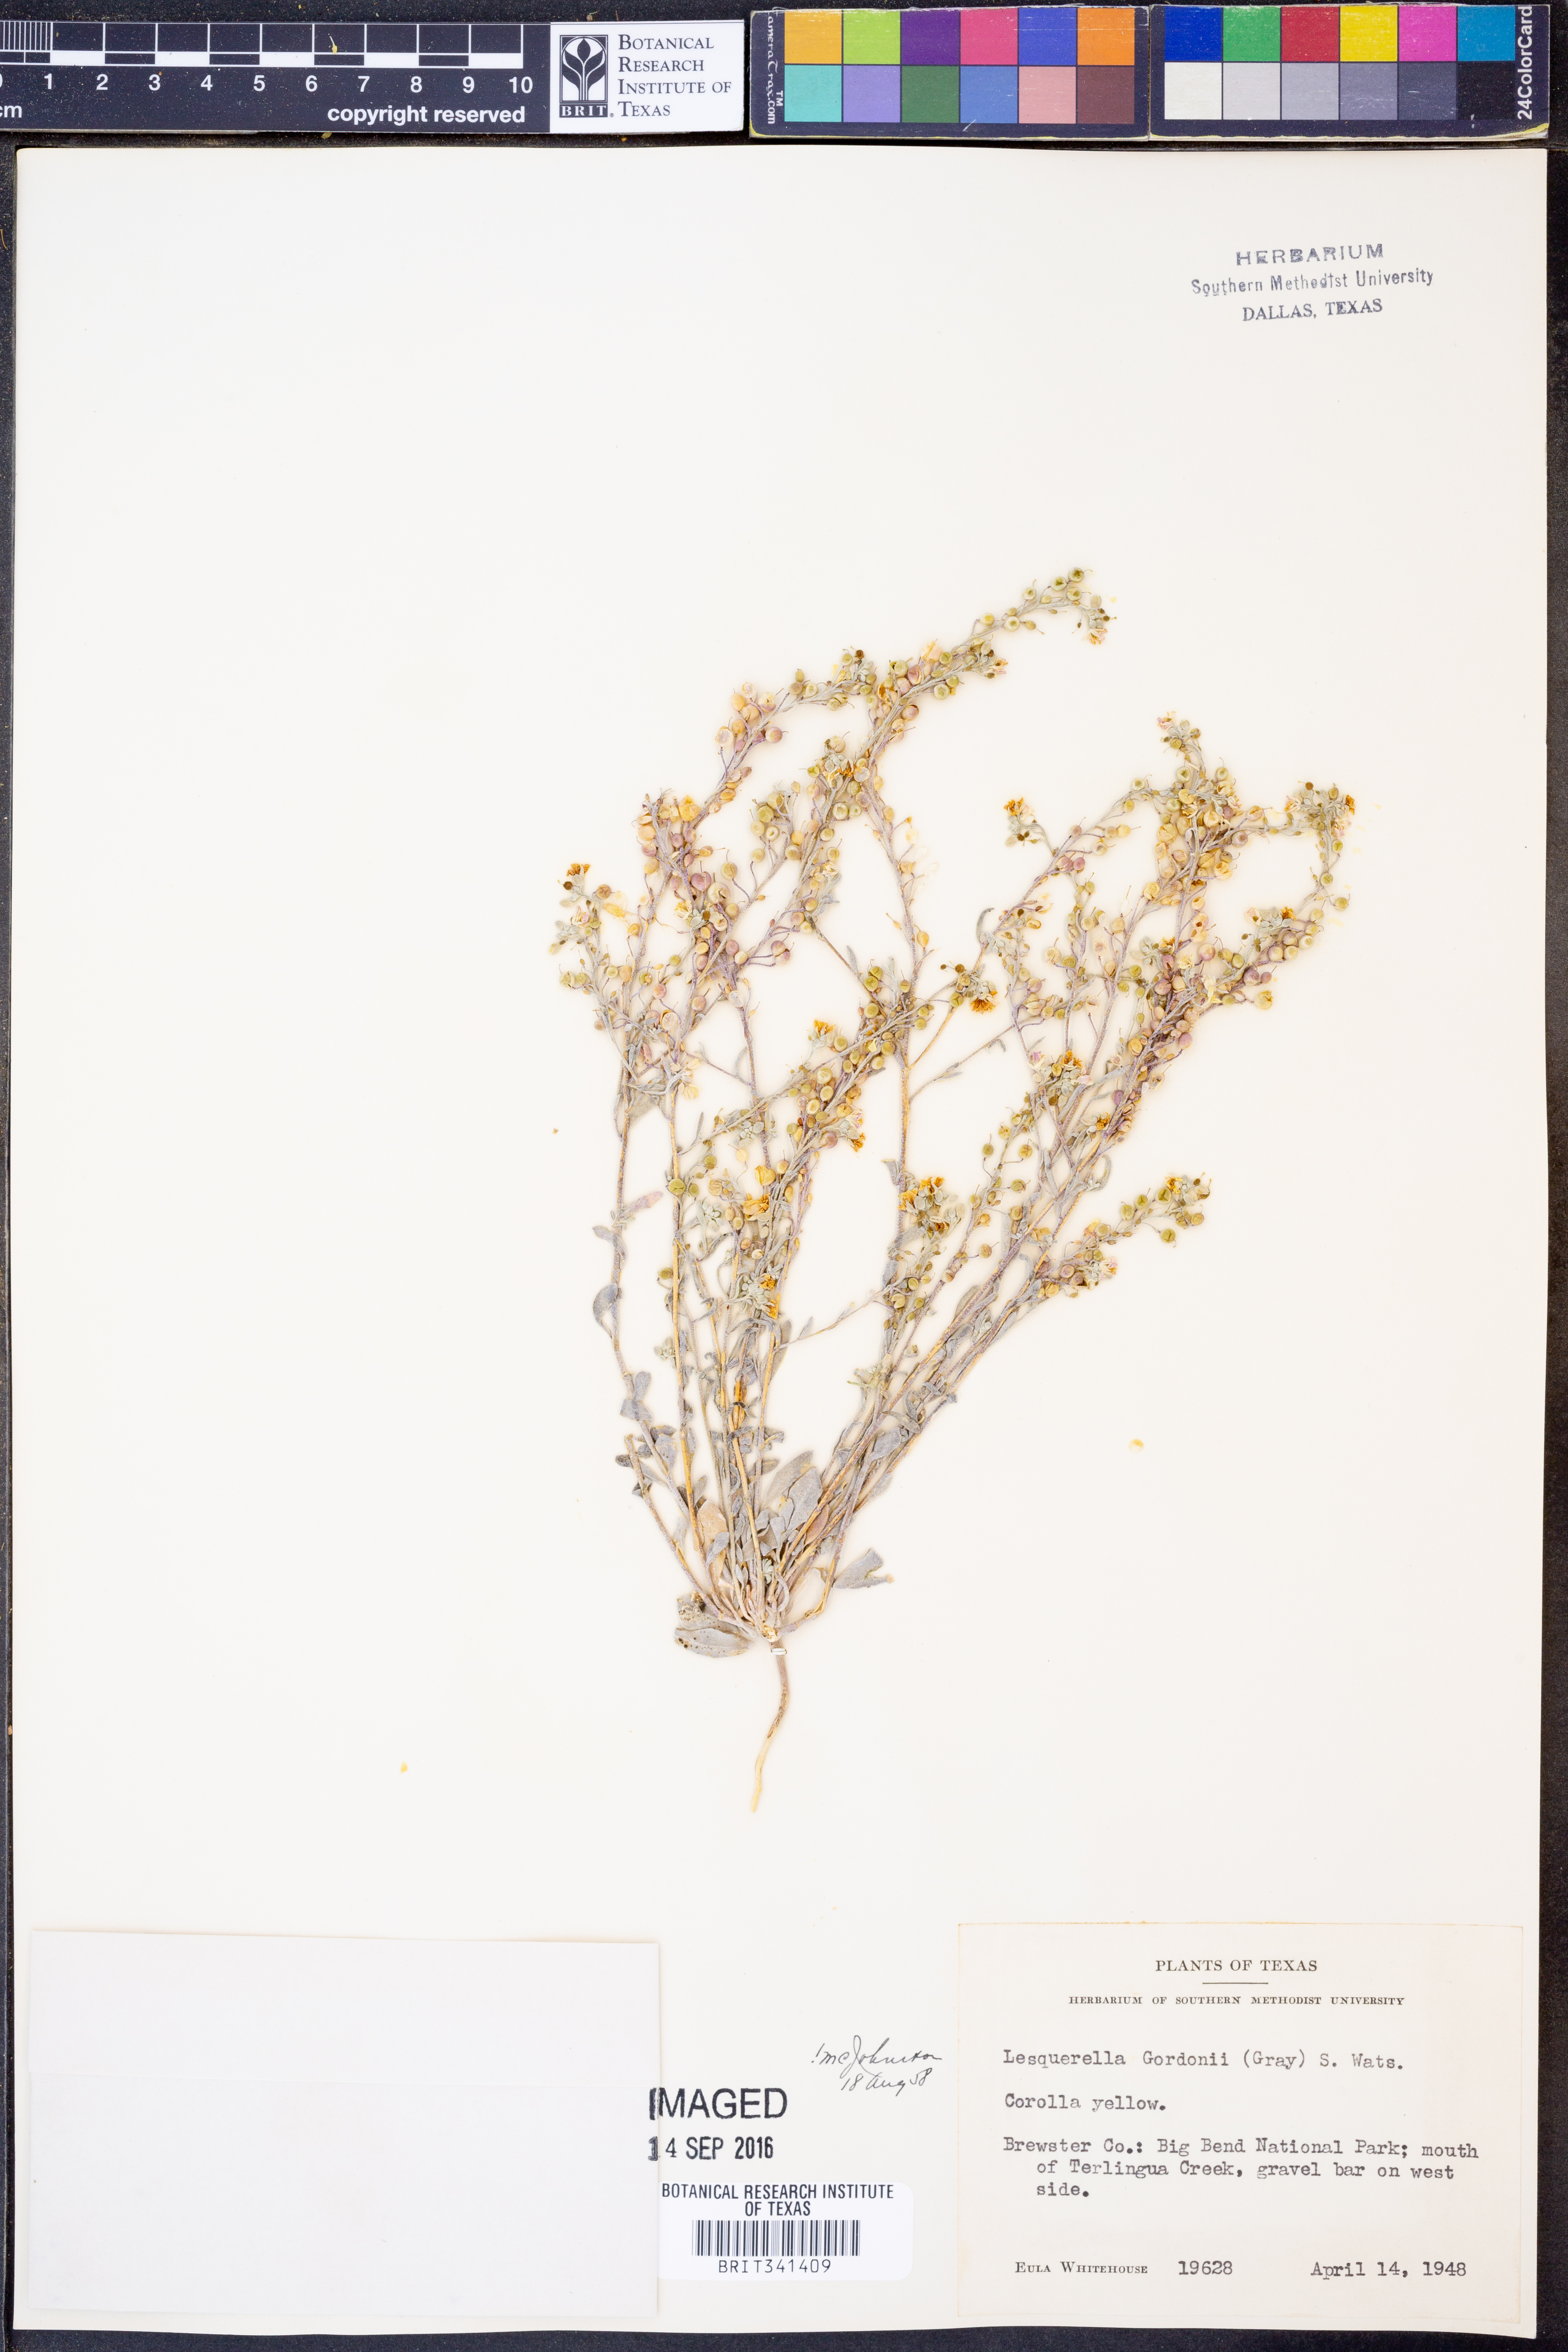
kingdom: Plantae
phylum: Tracheophyta
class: Magnoliopsida
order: Brassicales
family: Brassicaceae
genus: Physaria
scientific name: Physaria gordonii
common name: Gordon's bladderpod
